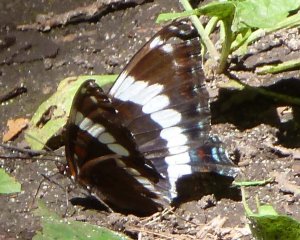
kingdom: Animalia
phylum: Arthropoda
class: Insecta
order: Lepidoptera
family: Nymphalidae
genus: Limenitis
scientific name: Limenitis arthemis
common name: Red-spotted Admiral
